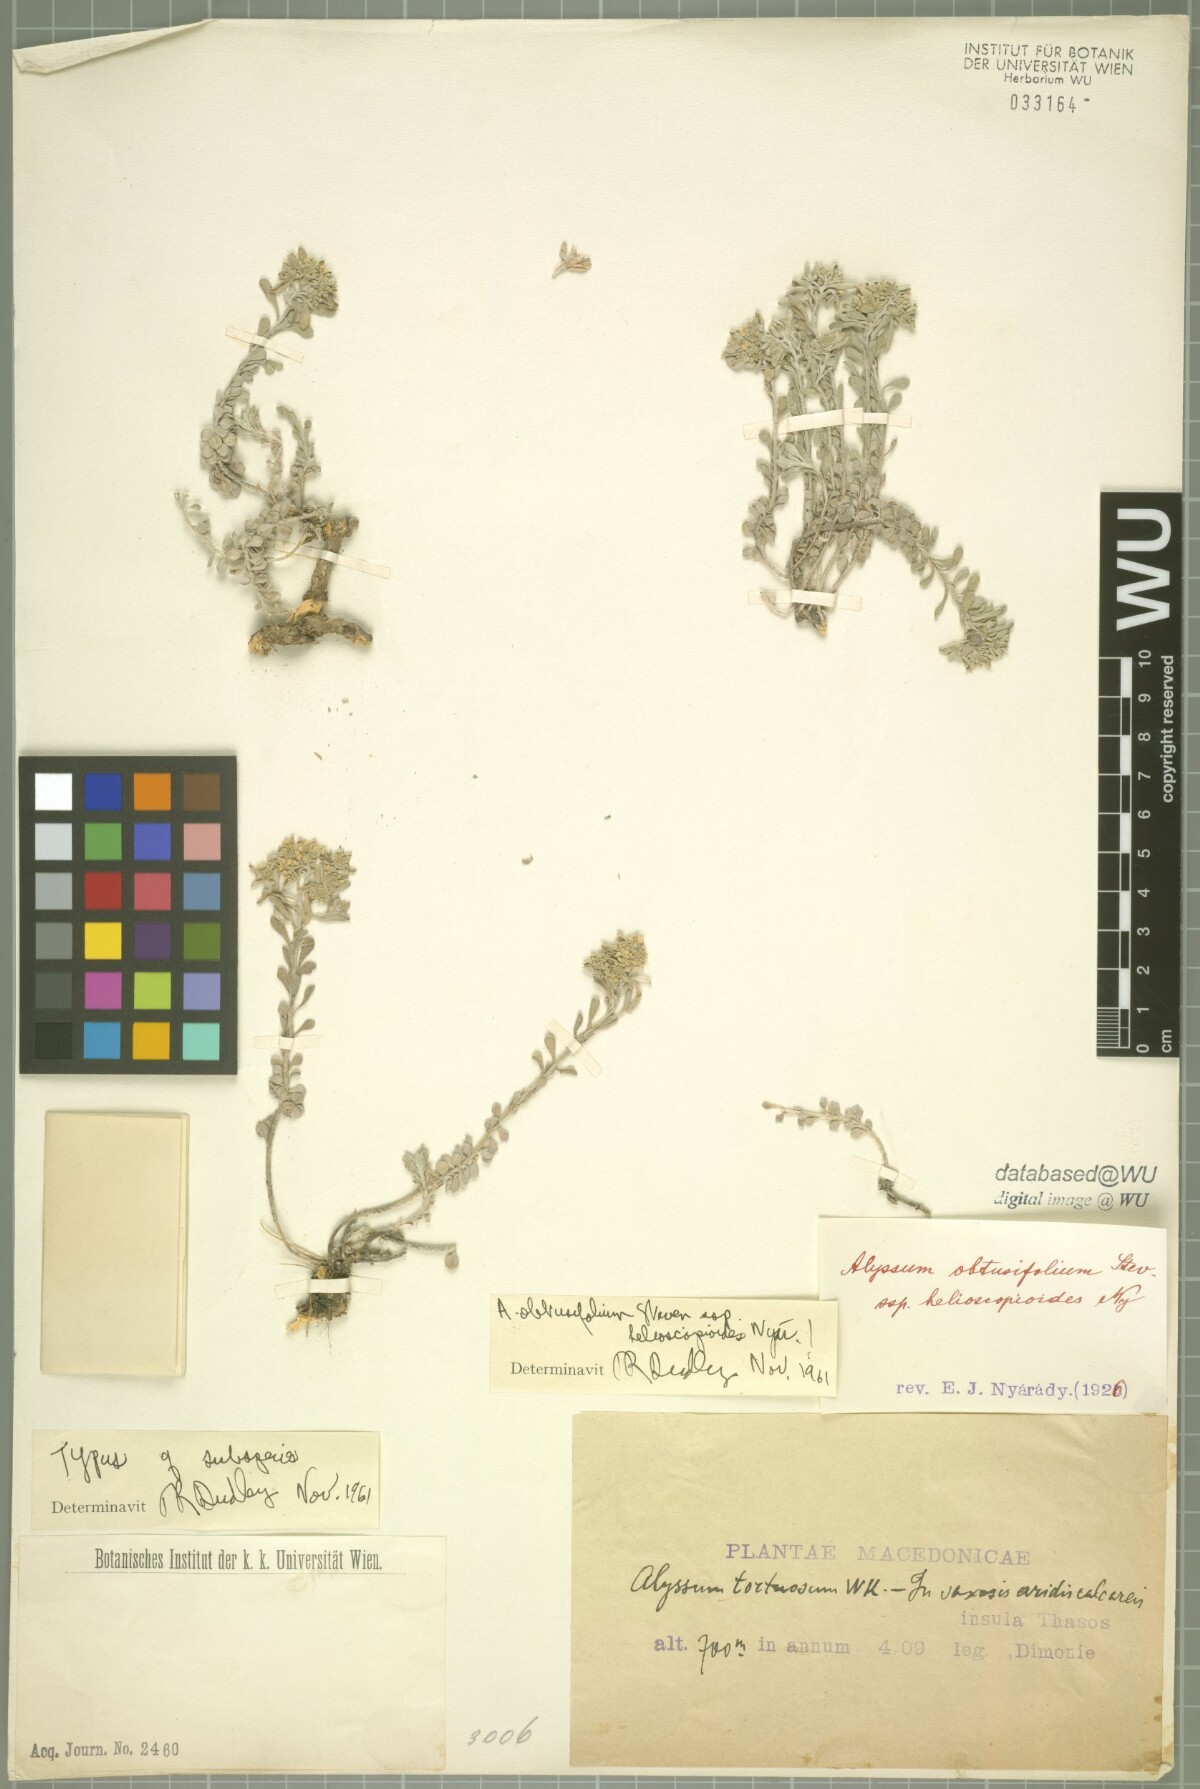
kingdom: Plantae
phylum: Tracheophyta
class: Magnoliopsida
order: Brassicales
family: Brassicaceae
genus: Odontarrhena
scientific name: Odontarrhena obtusifolia
